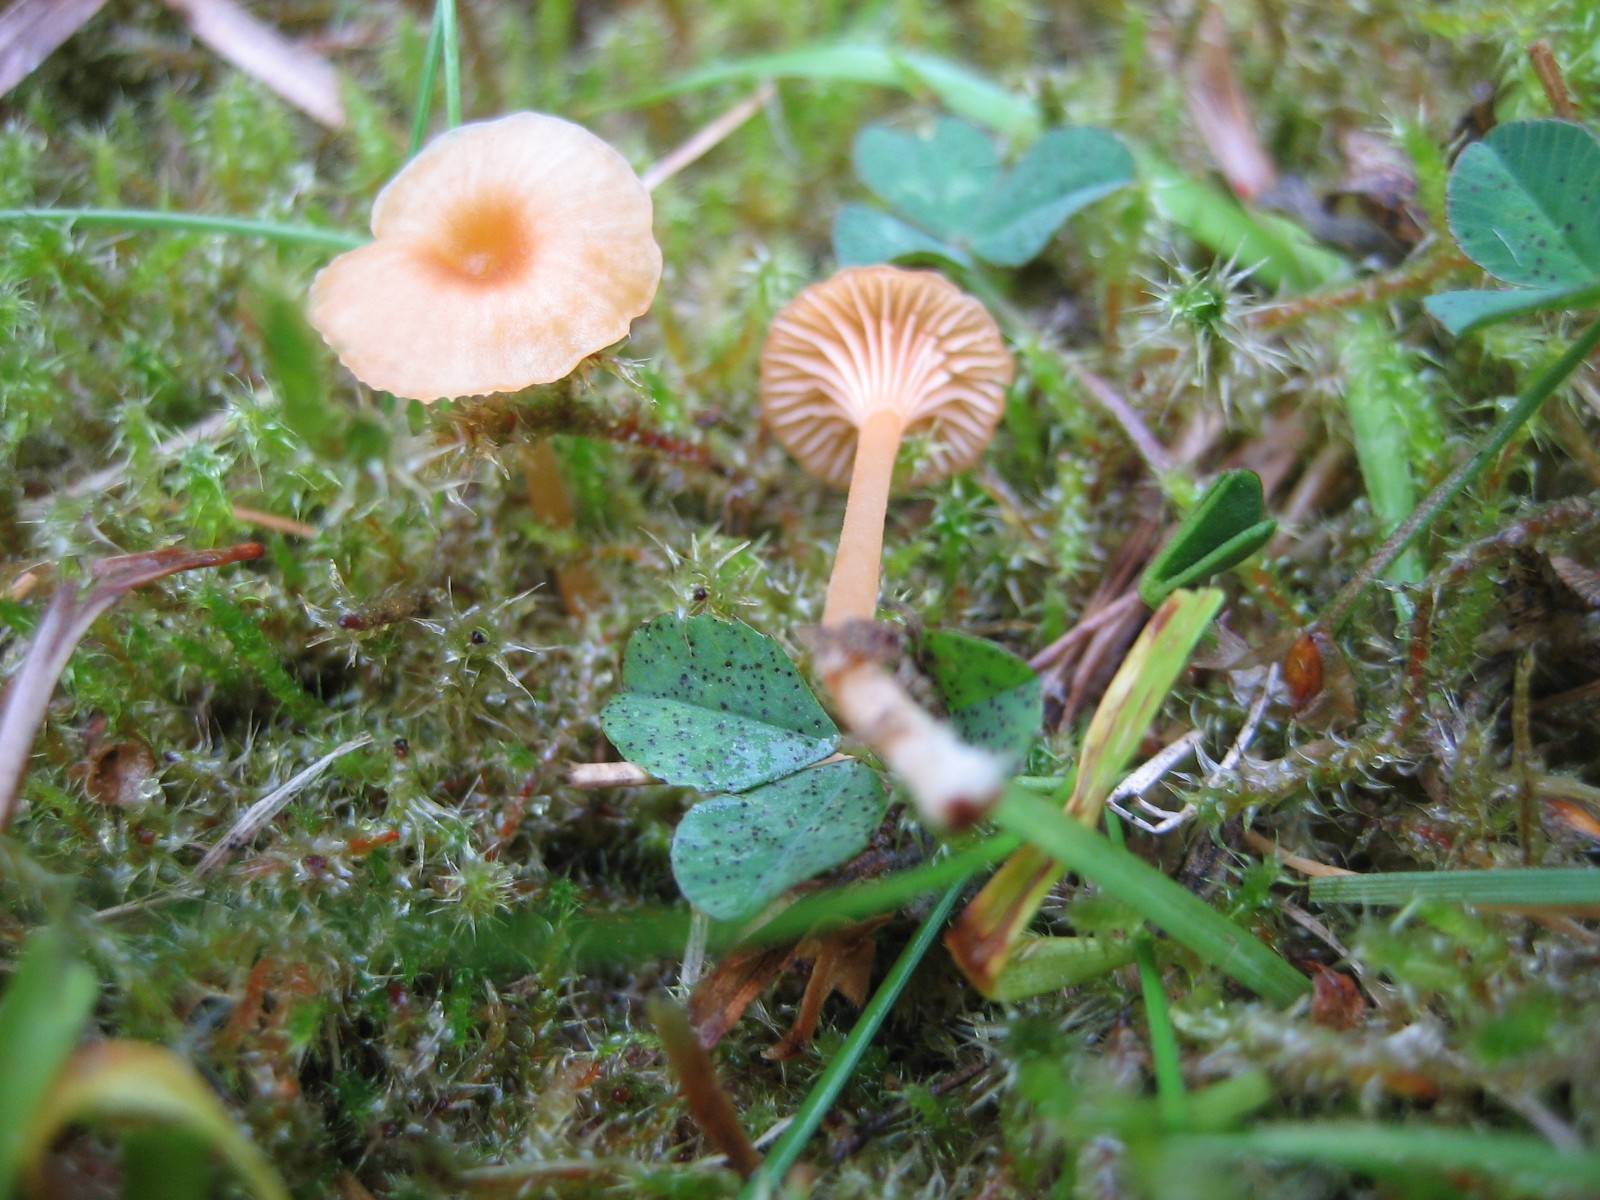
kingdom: Fungi
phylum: Basidiomycota
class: Agaricomycetes
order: Hymenochaetales
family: Rickenellaceae
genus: Rickenella
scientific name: Rickenella fibula
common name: orange mosnavlehat
